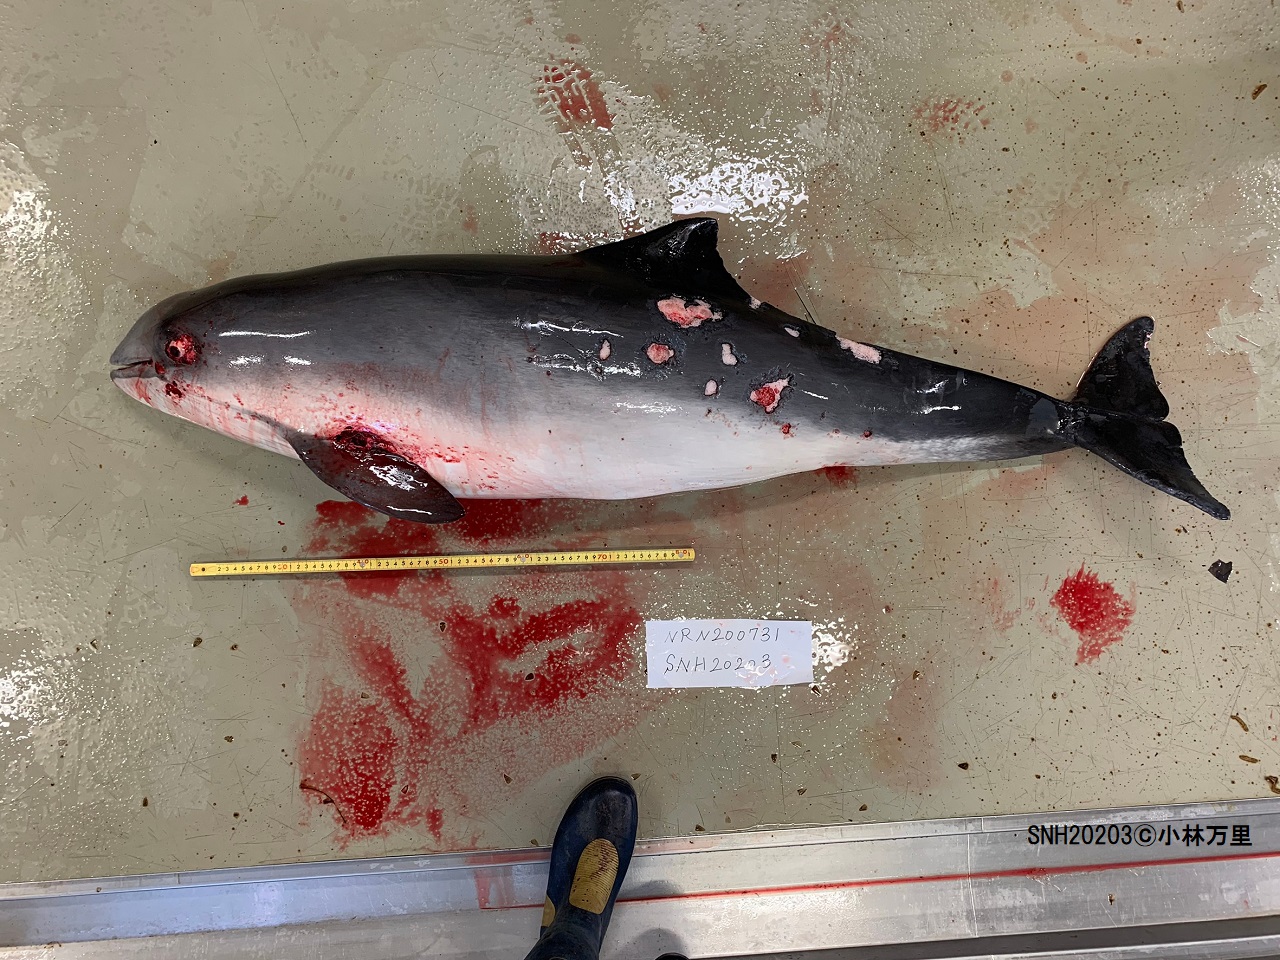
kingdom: Animalia
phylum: Chordata
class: Mammalia
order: Cetacea
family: Phocoenidae
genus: Phocoena
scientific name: Phocoena phocoena
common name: Harbour porpoise
